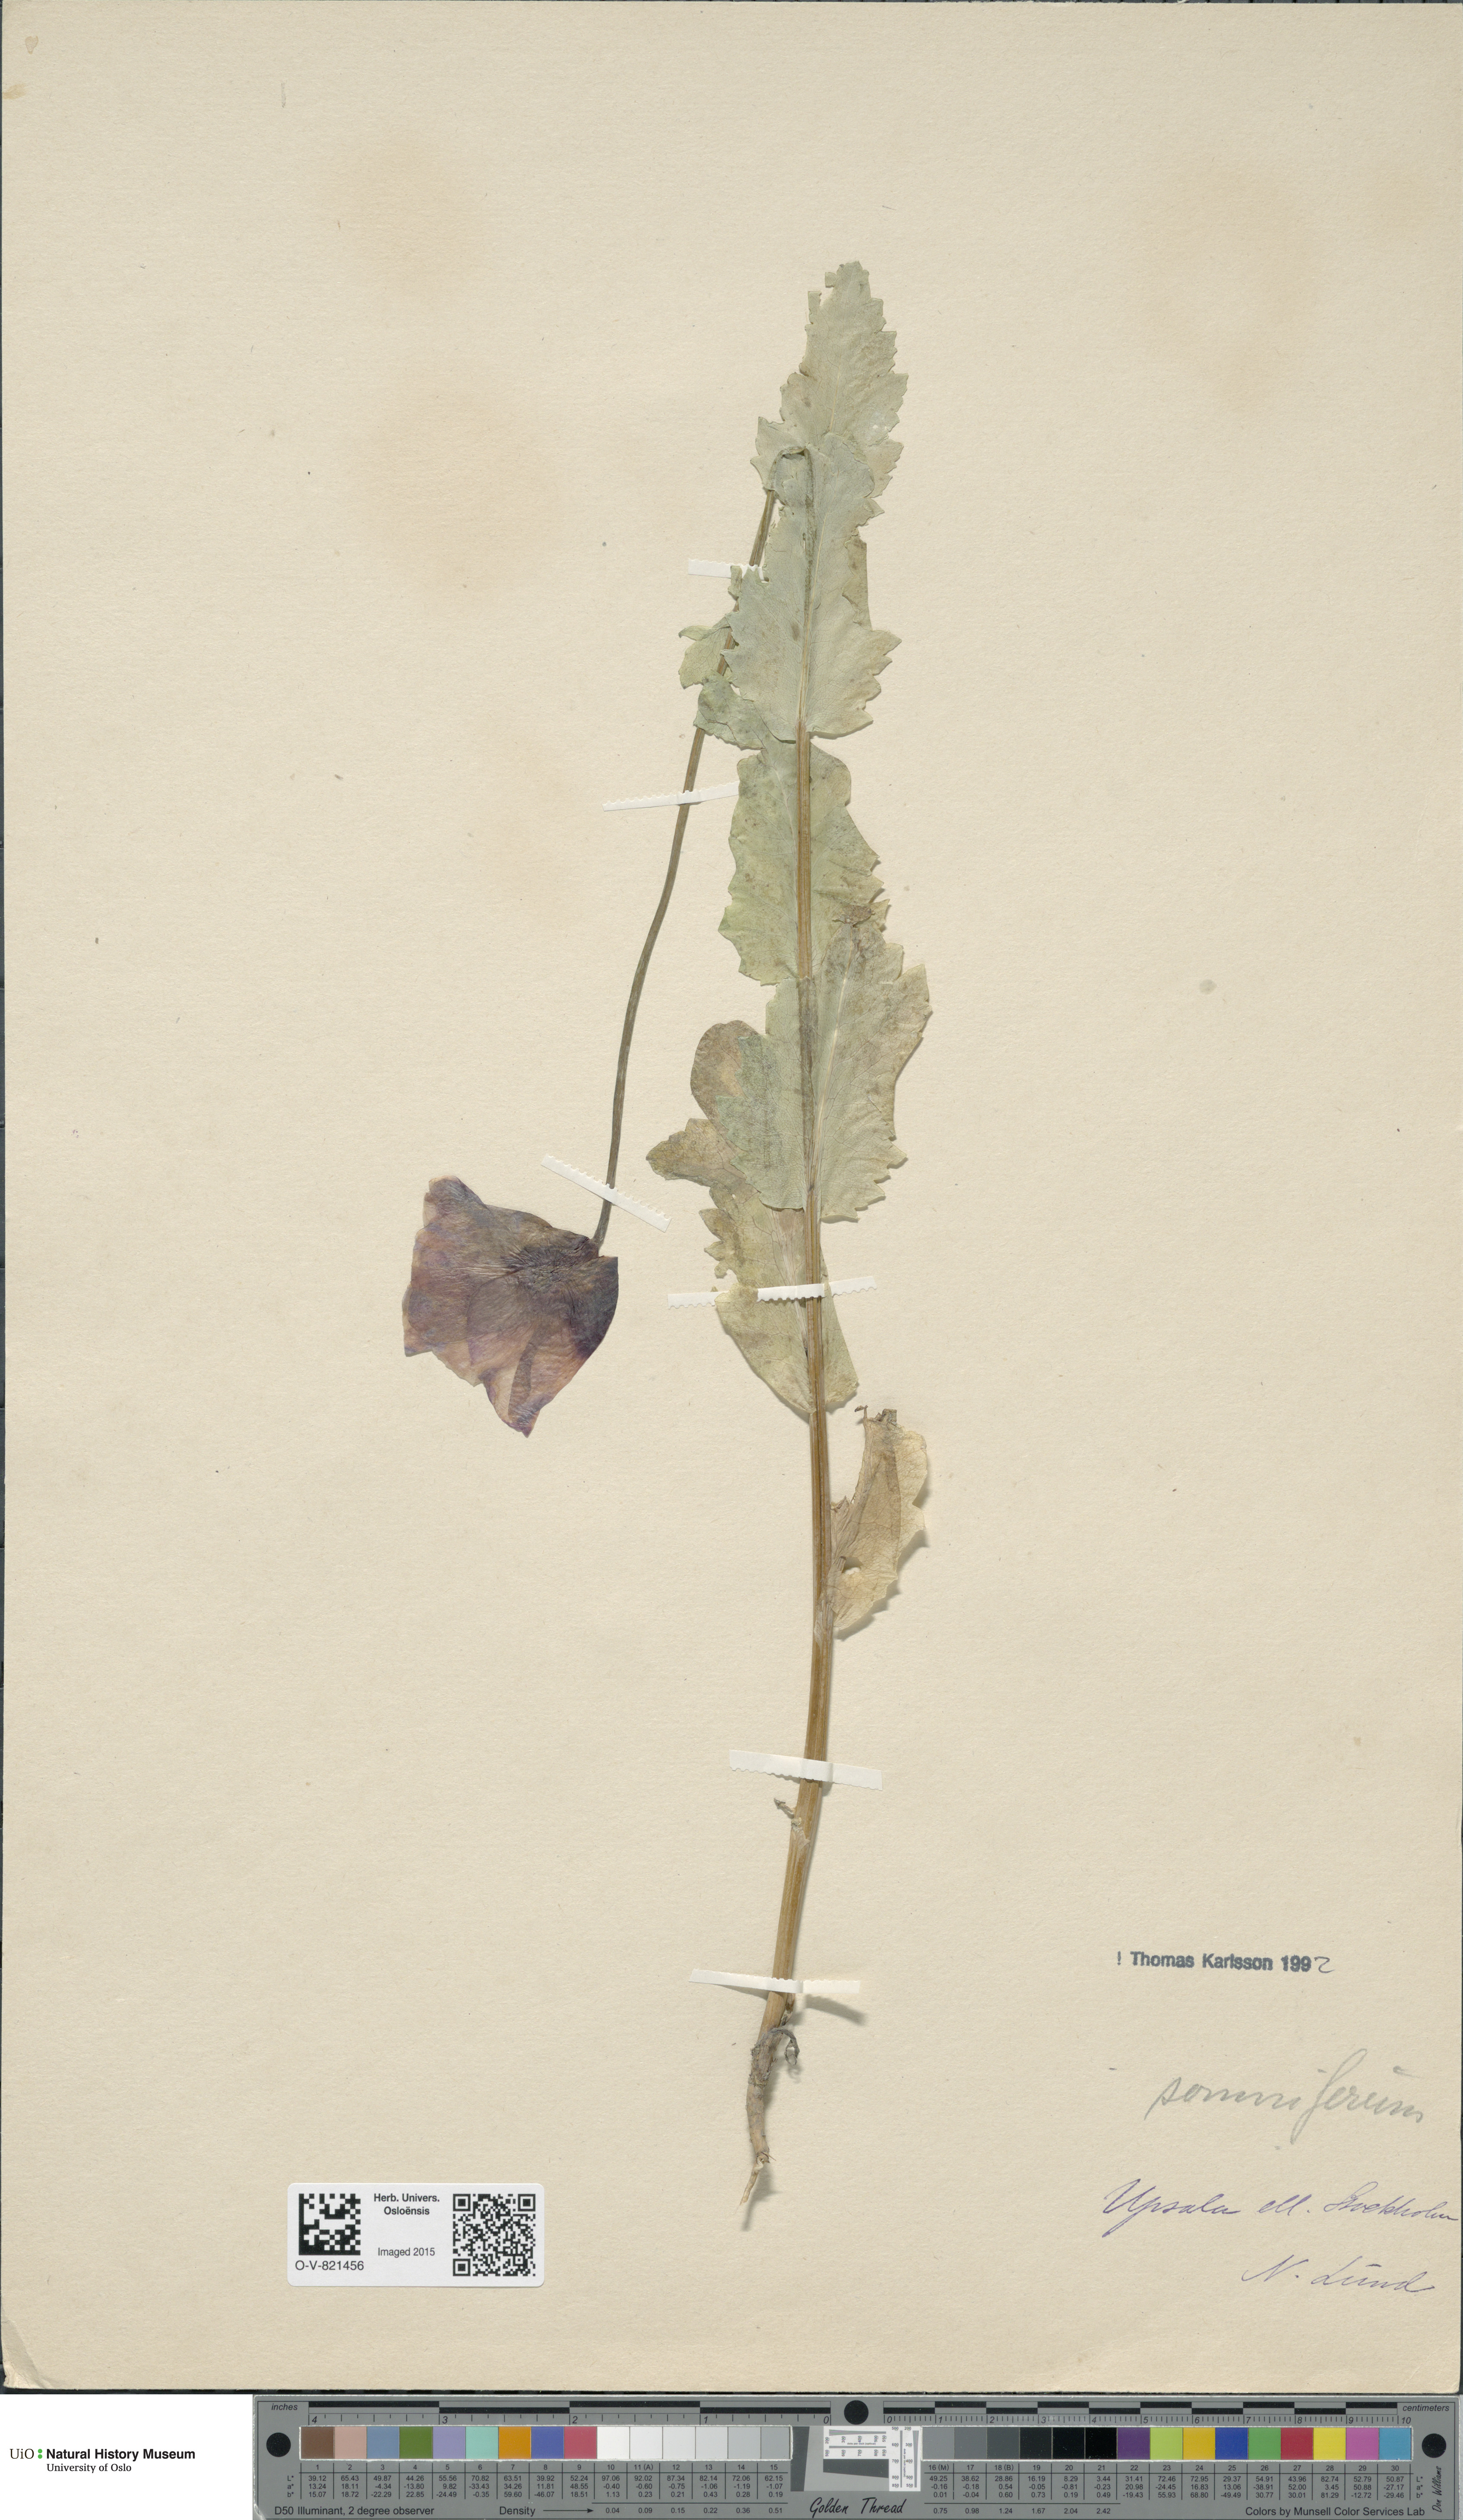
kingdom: Plantae
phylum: Tracheophyta
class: Magnoliopsida
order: Ranunculales
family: Papaveraceae
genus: Papaver
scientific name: Papaver somniferum
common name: Opium poppy
